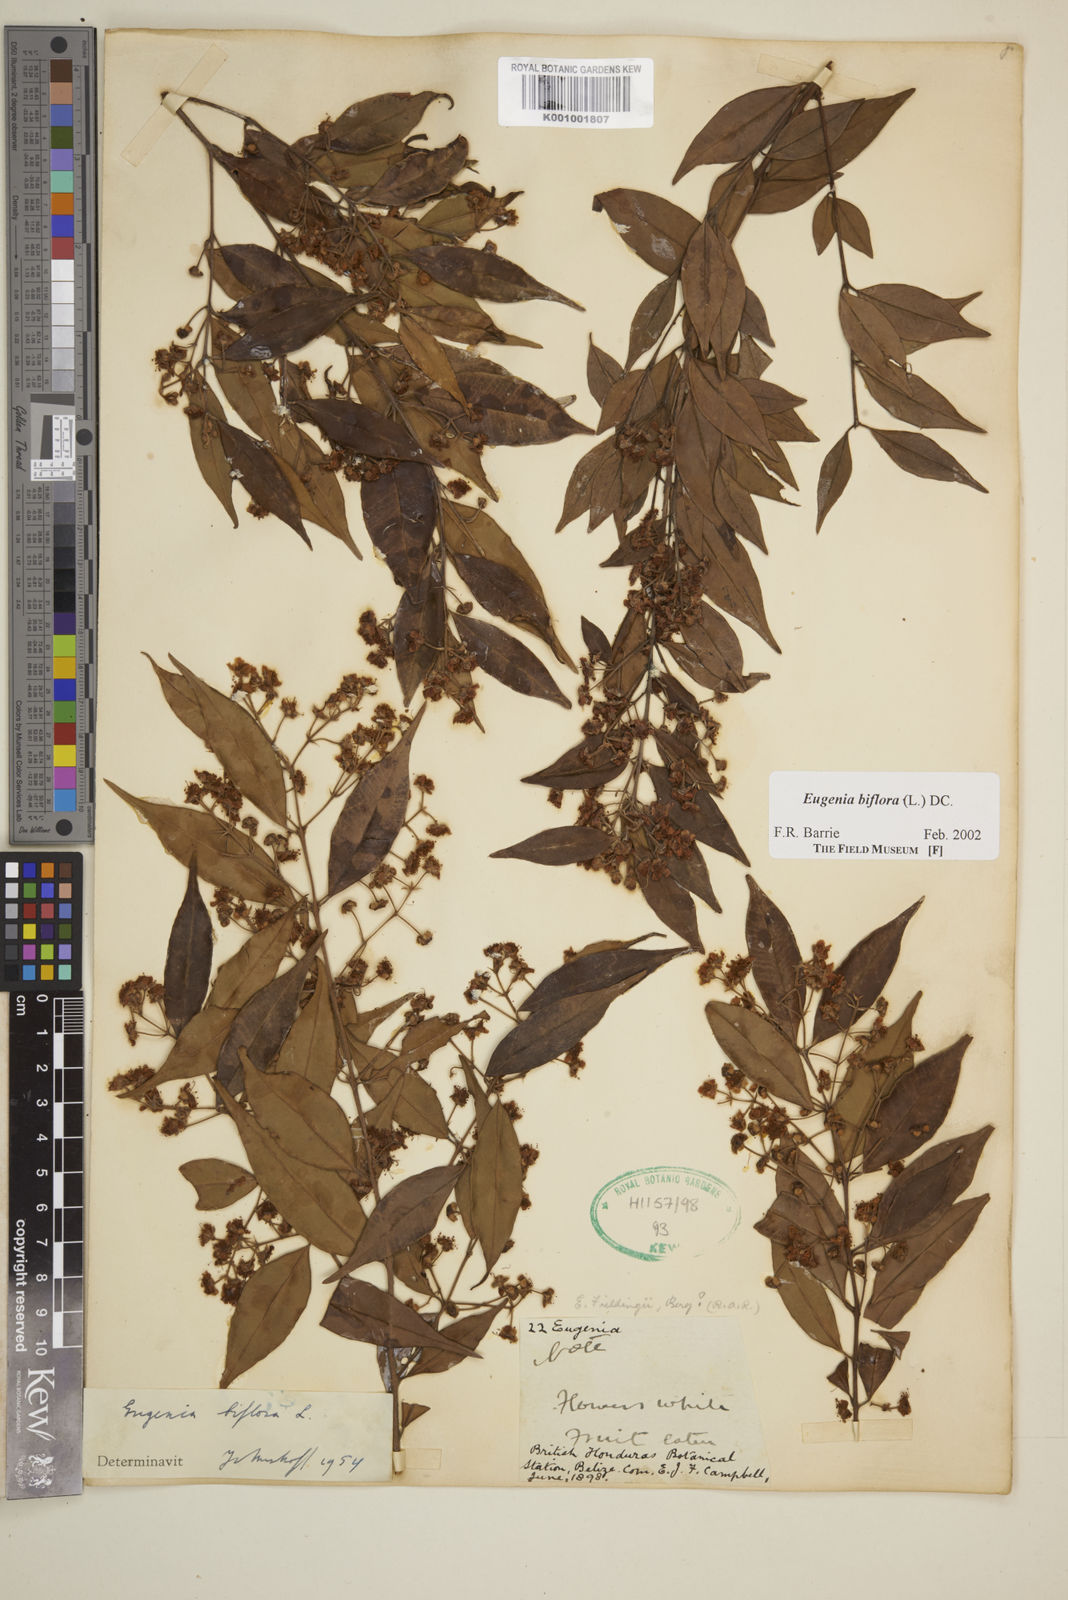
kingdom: Plantae
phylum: Tracheophyta
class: Magnoliopsida
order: Myrtales
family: Myrtaceae
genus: Eugenia
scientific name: Eugenia biflora
